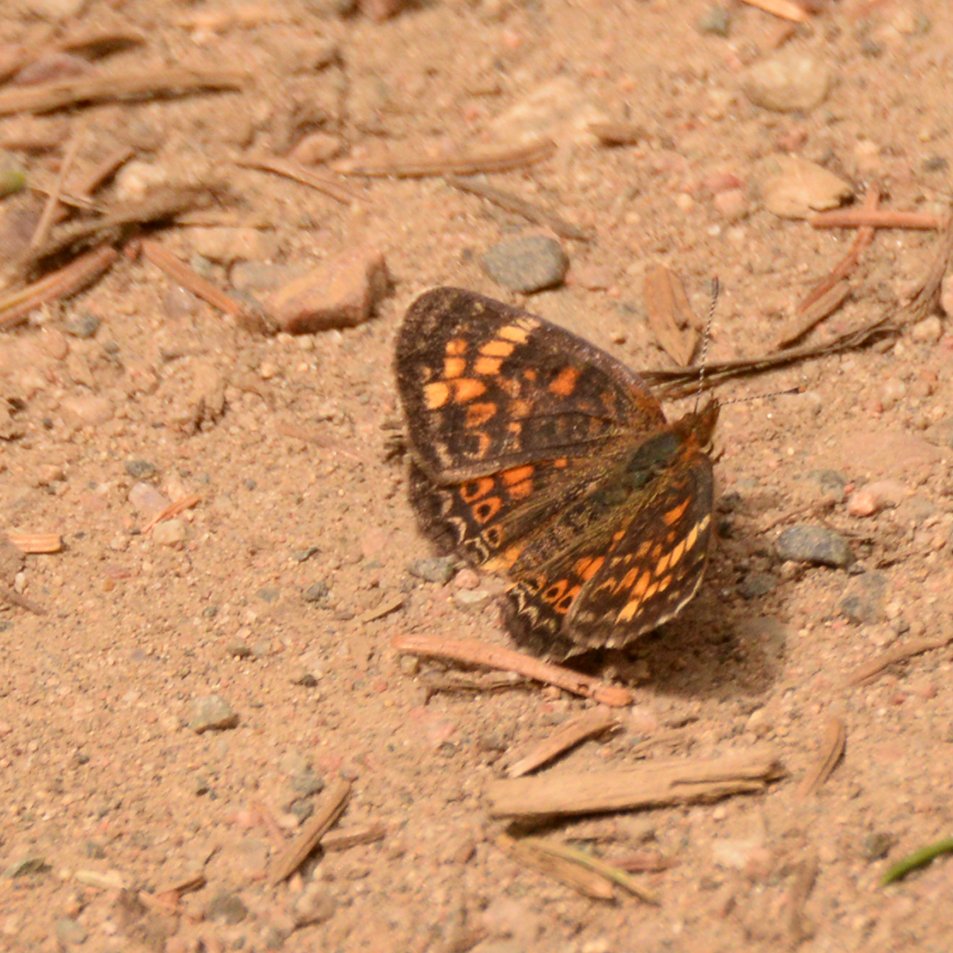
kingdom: Animalia
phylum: Arthropoda
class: Insecta
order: Lepidoptera
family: Nymphalidae
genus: Phyciodes
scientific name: Phyciodes tharos
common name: Northern Crescent
